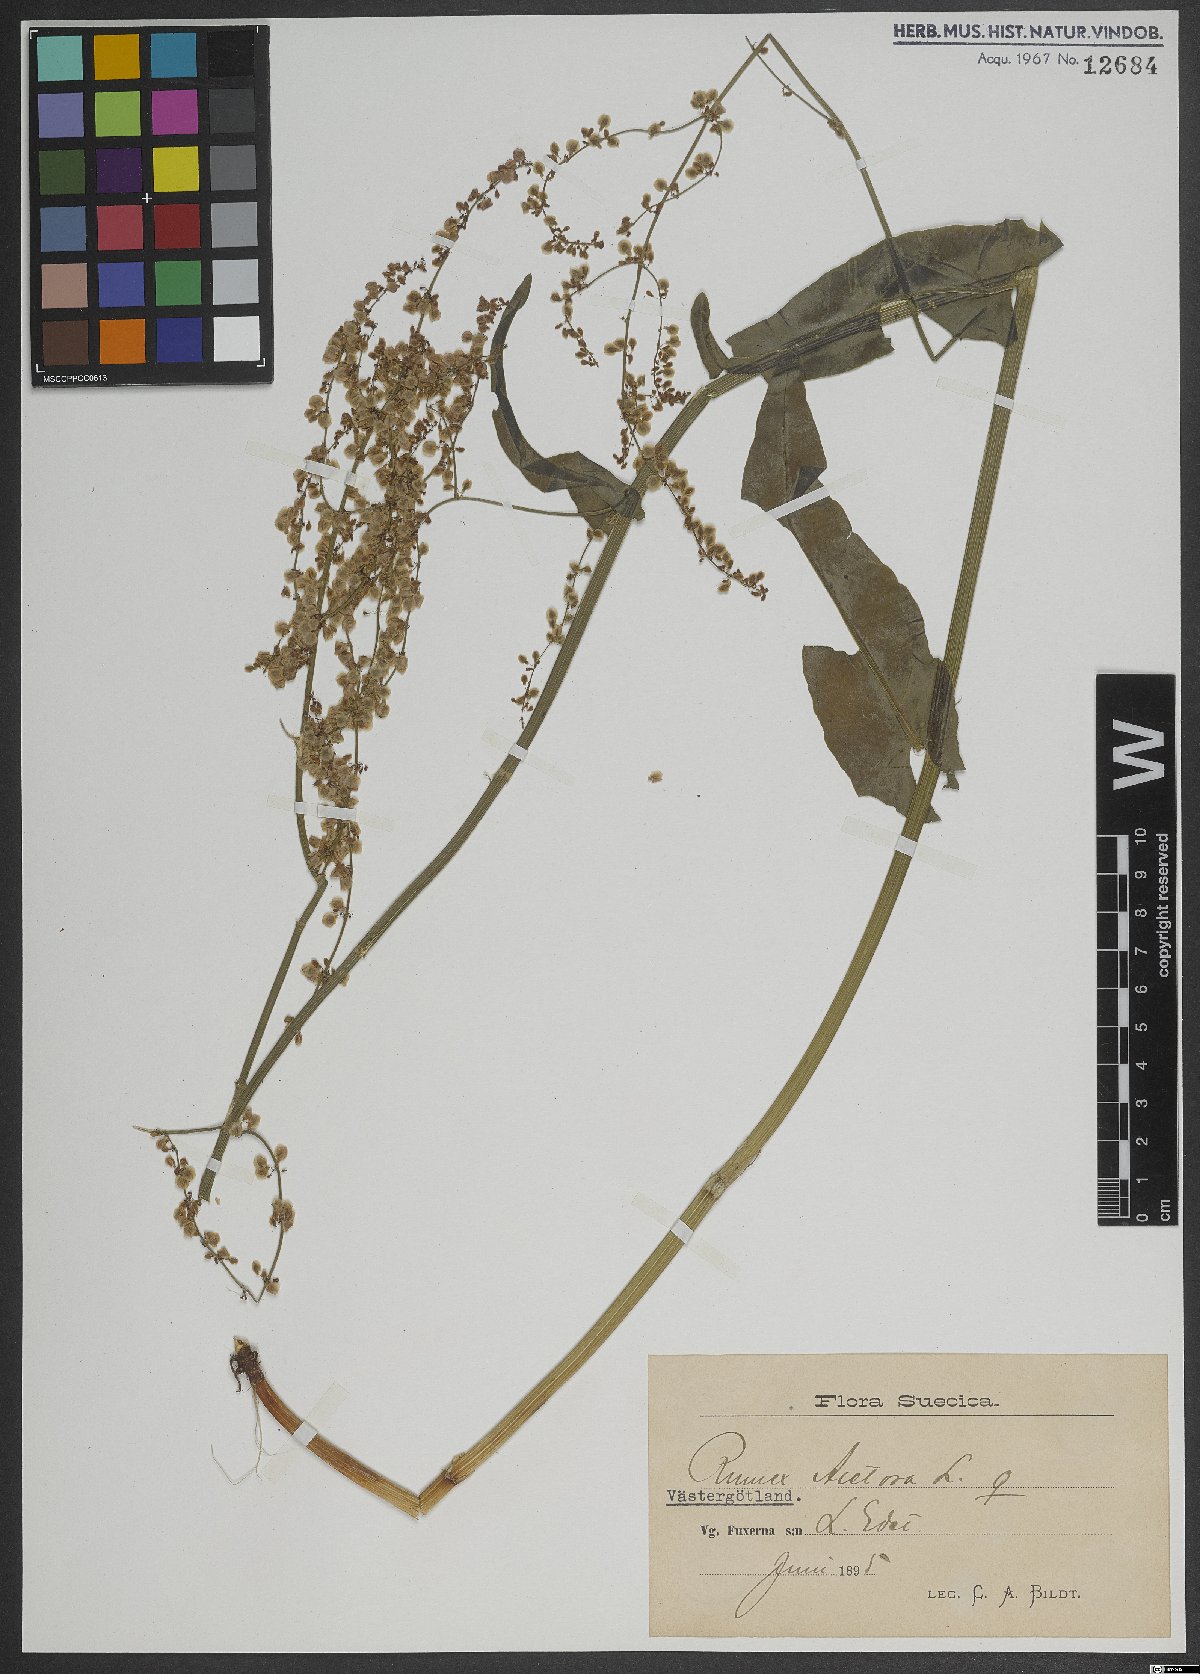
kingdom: Plantae
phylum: Tracheophyta
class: Magnoliopsida
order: Caryophyllales
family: Polygonaceae
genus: Rumex
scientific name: Rumex acetosa
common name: Garden sorrel
